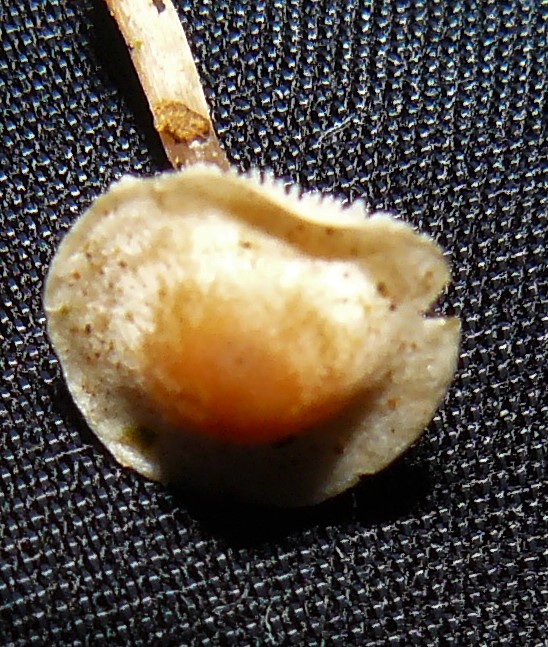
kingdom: Fungi
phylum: Basidiomycota
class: Agaricomycetes
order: Agaricales
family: Tricholomataceae
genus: Collybia
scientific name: Collybia cookei
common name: gulknoldet lighat
